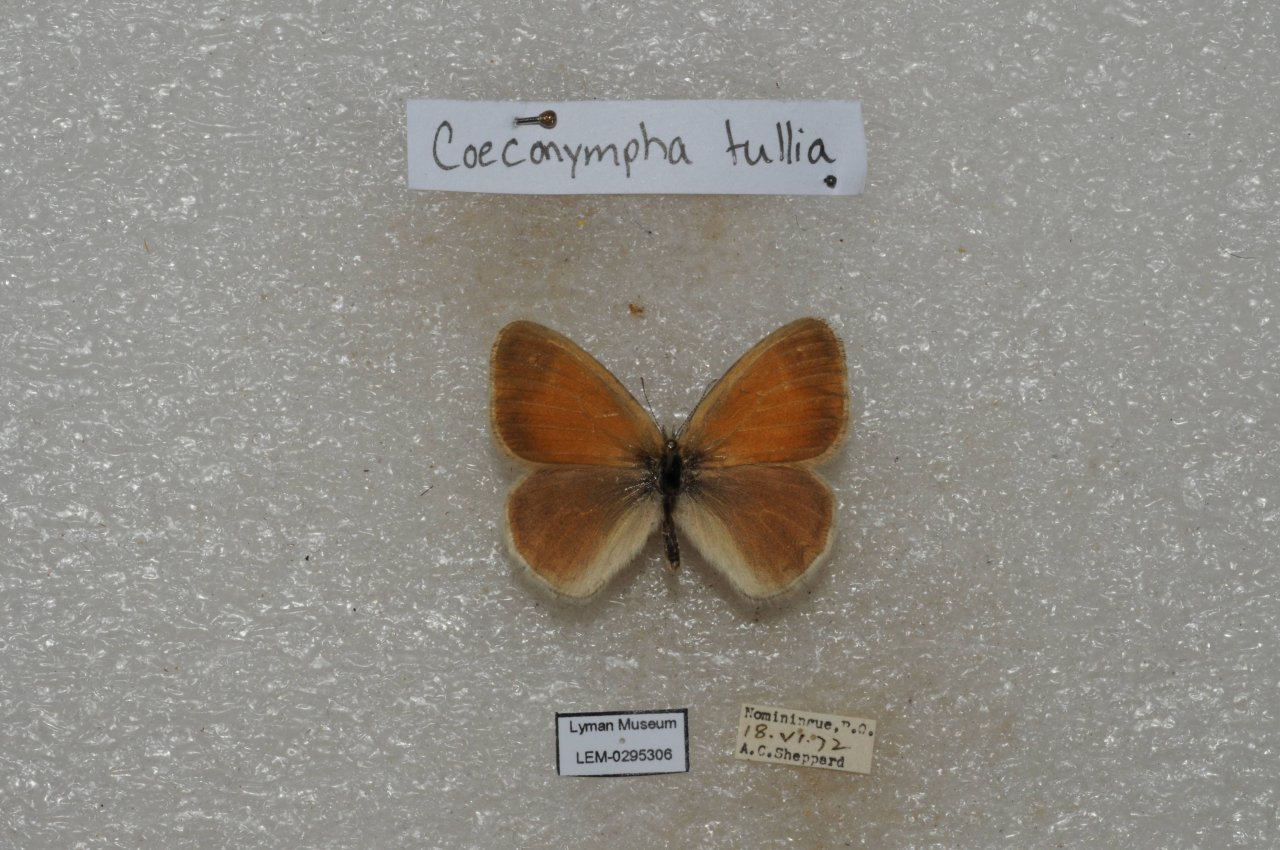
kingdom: Animalia
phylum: Arthropoda
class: Insecta
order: Lepidoptera
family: Nymphalidae
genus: Coenonympha
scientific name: Coenonympha tullia
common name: Large Heath
